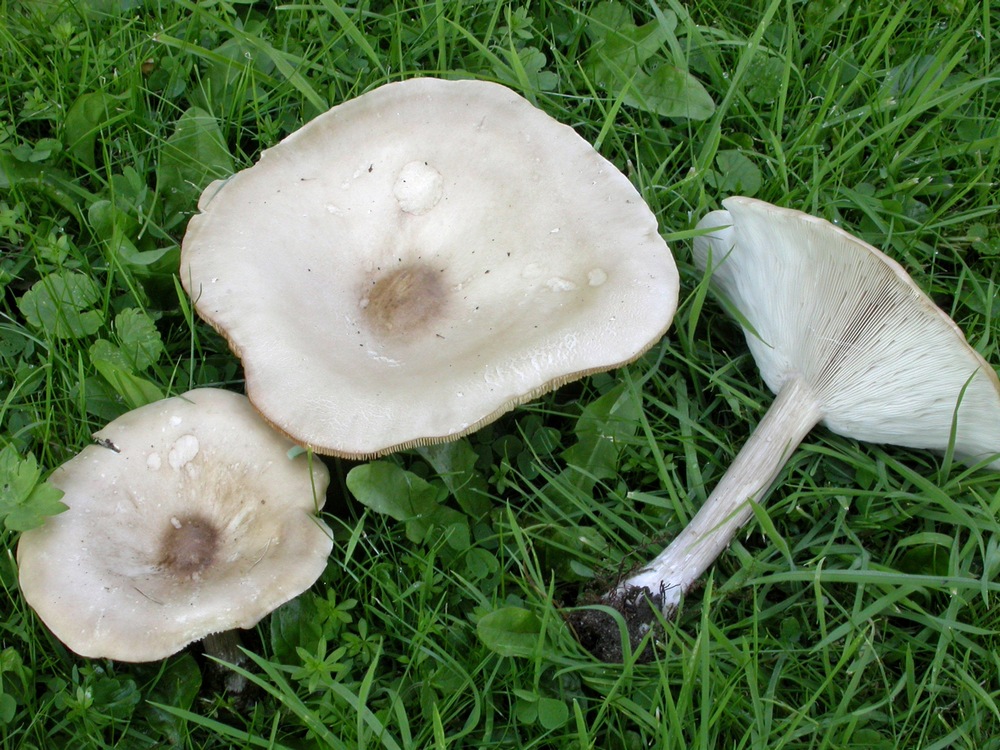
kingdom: Fungi
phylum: Basidiomycota
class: Agaricomycetes
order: Agaricales
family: Tricholomataceae
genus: Melanoleuca
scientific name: Melanoleuca grammopodia
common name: stribestokket munkehat
